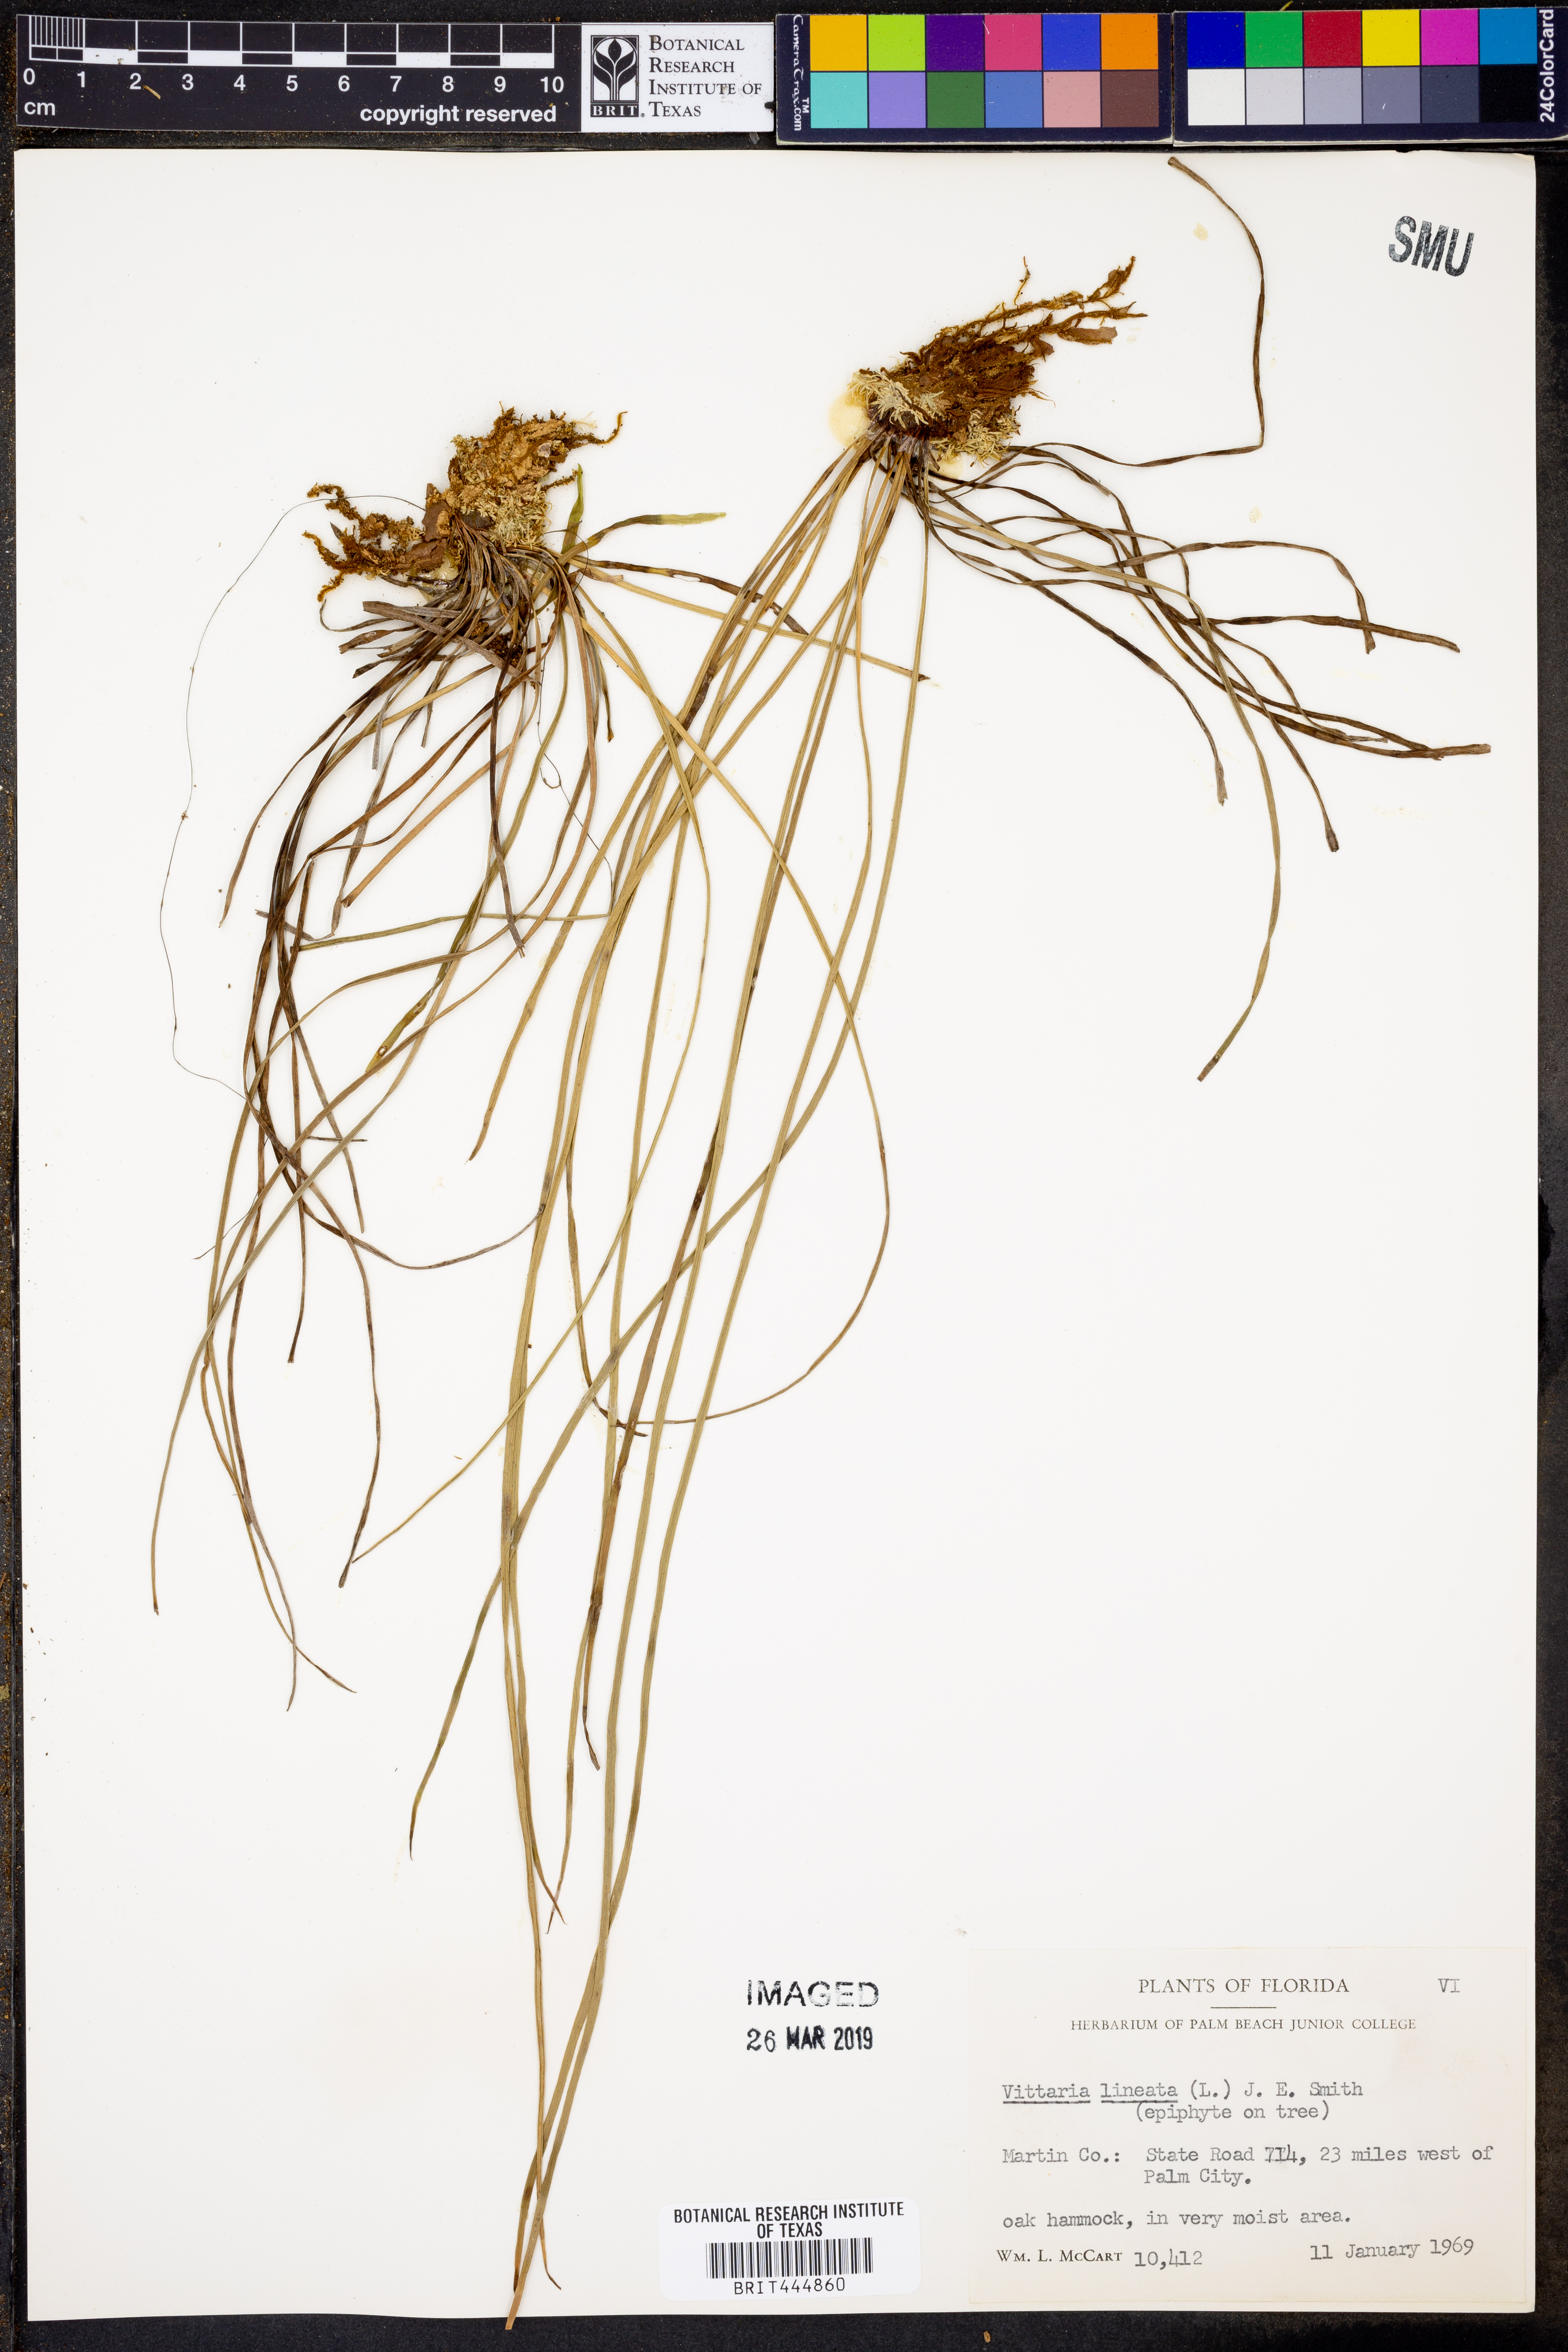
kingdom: Plantae
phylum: Tracheophyta
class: Polypodiopsida
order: Polypodiales
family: Pteridaceae
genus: Vittaria
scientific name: Vittaria lineata
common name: Shoestring fern
